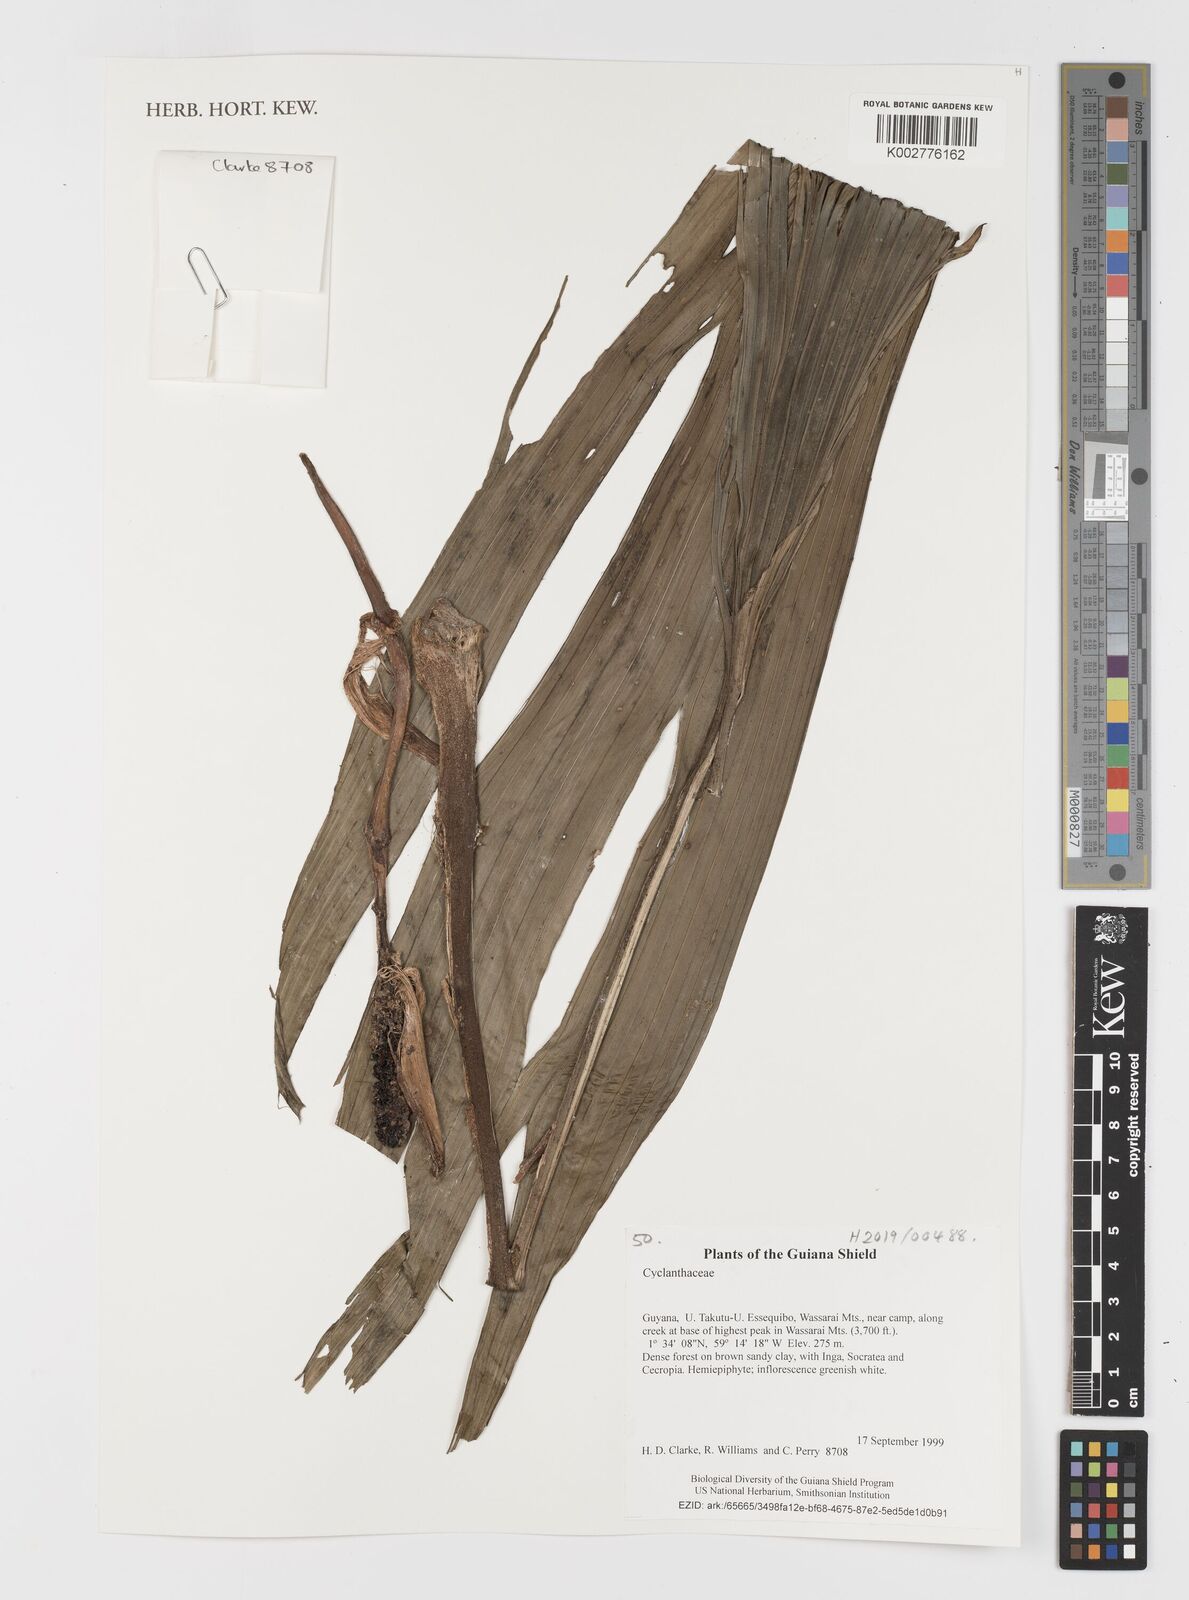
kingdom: Plantae
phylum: Tracheophyta
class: Liliopsida
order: Pandanales
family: Cyclanthaceae
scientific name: Cyclanthaceae
